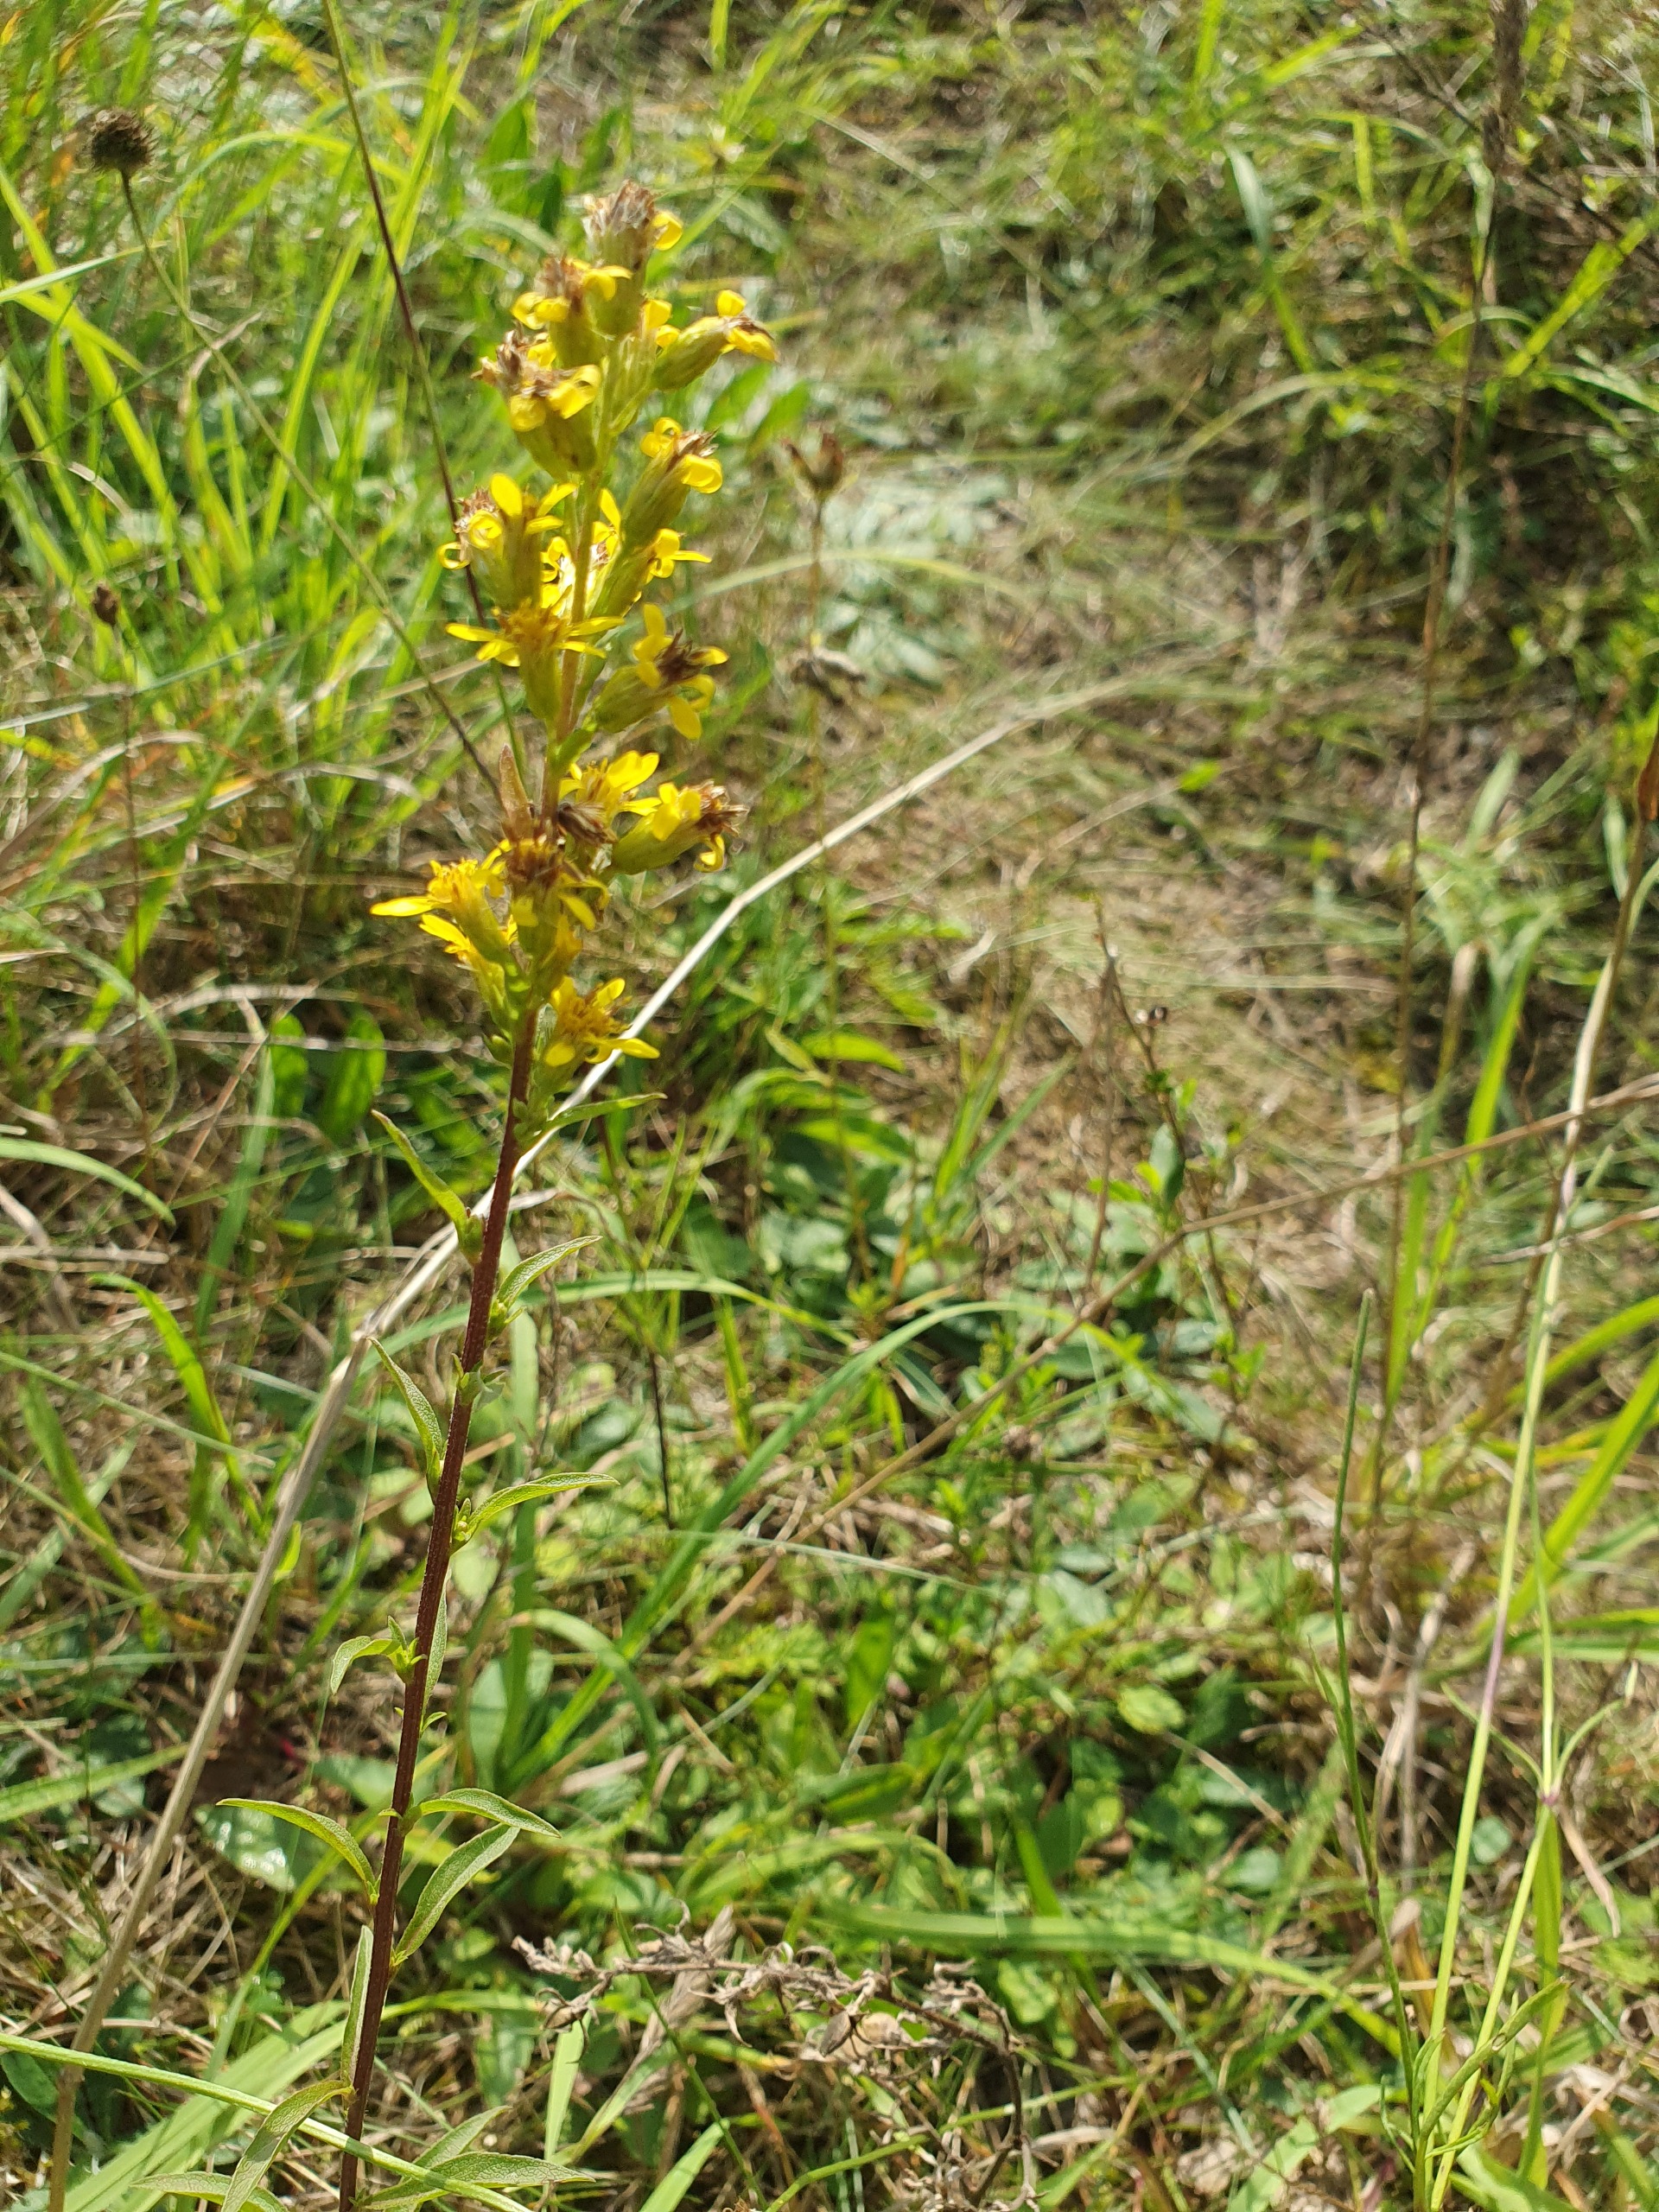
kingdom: Plantae
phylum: Tracheophyta
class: Magnoliopsida
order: Asterales
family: Asteraceae
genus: Solidago
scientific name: Solidago virgaurea
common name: Almindelig gyldenris
